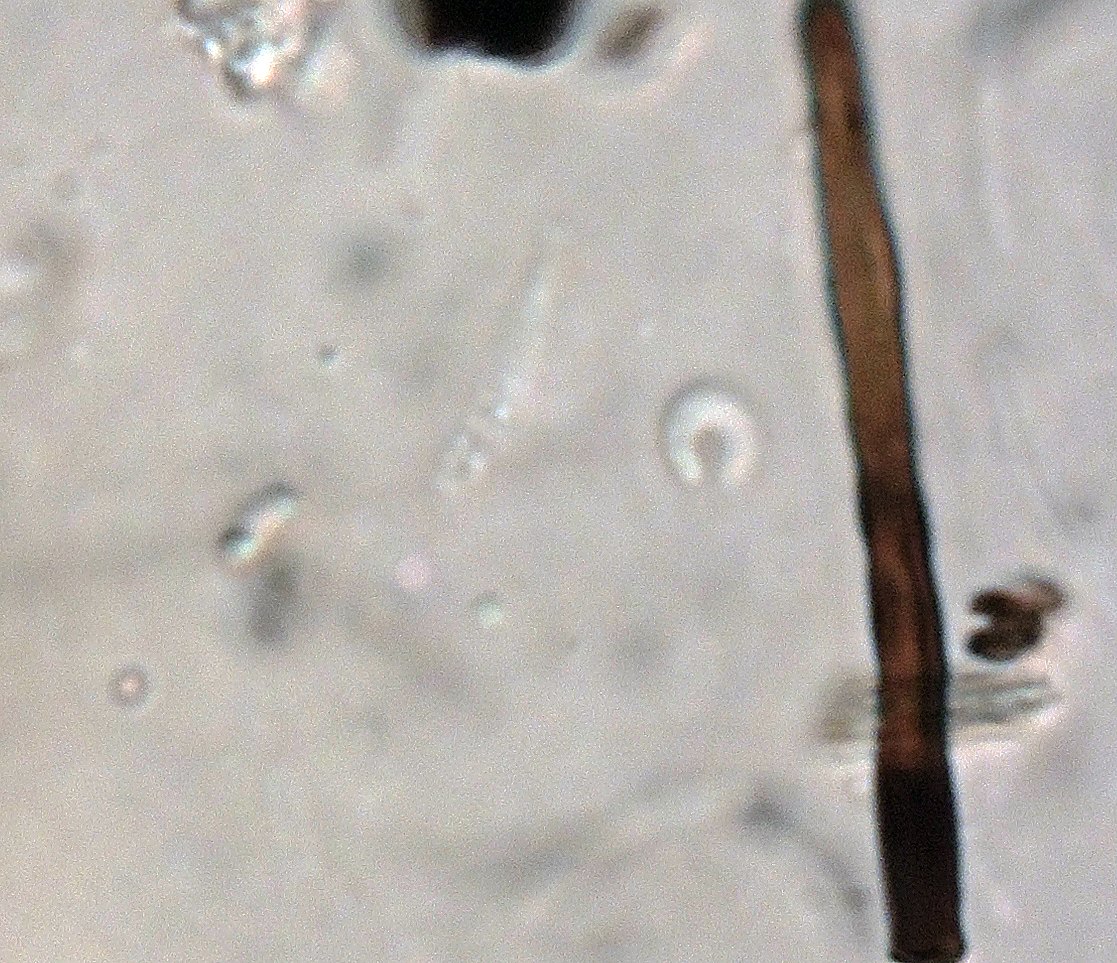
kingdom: Fungi
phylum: Ascomycota
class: Sordariomycetes
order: Calosphaeriales
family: Calosphaeriaceae
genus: Calosphaeria
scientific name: Calosphaeria cyclospora
